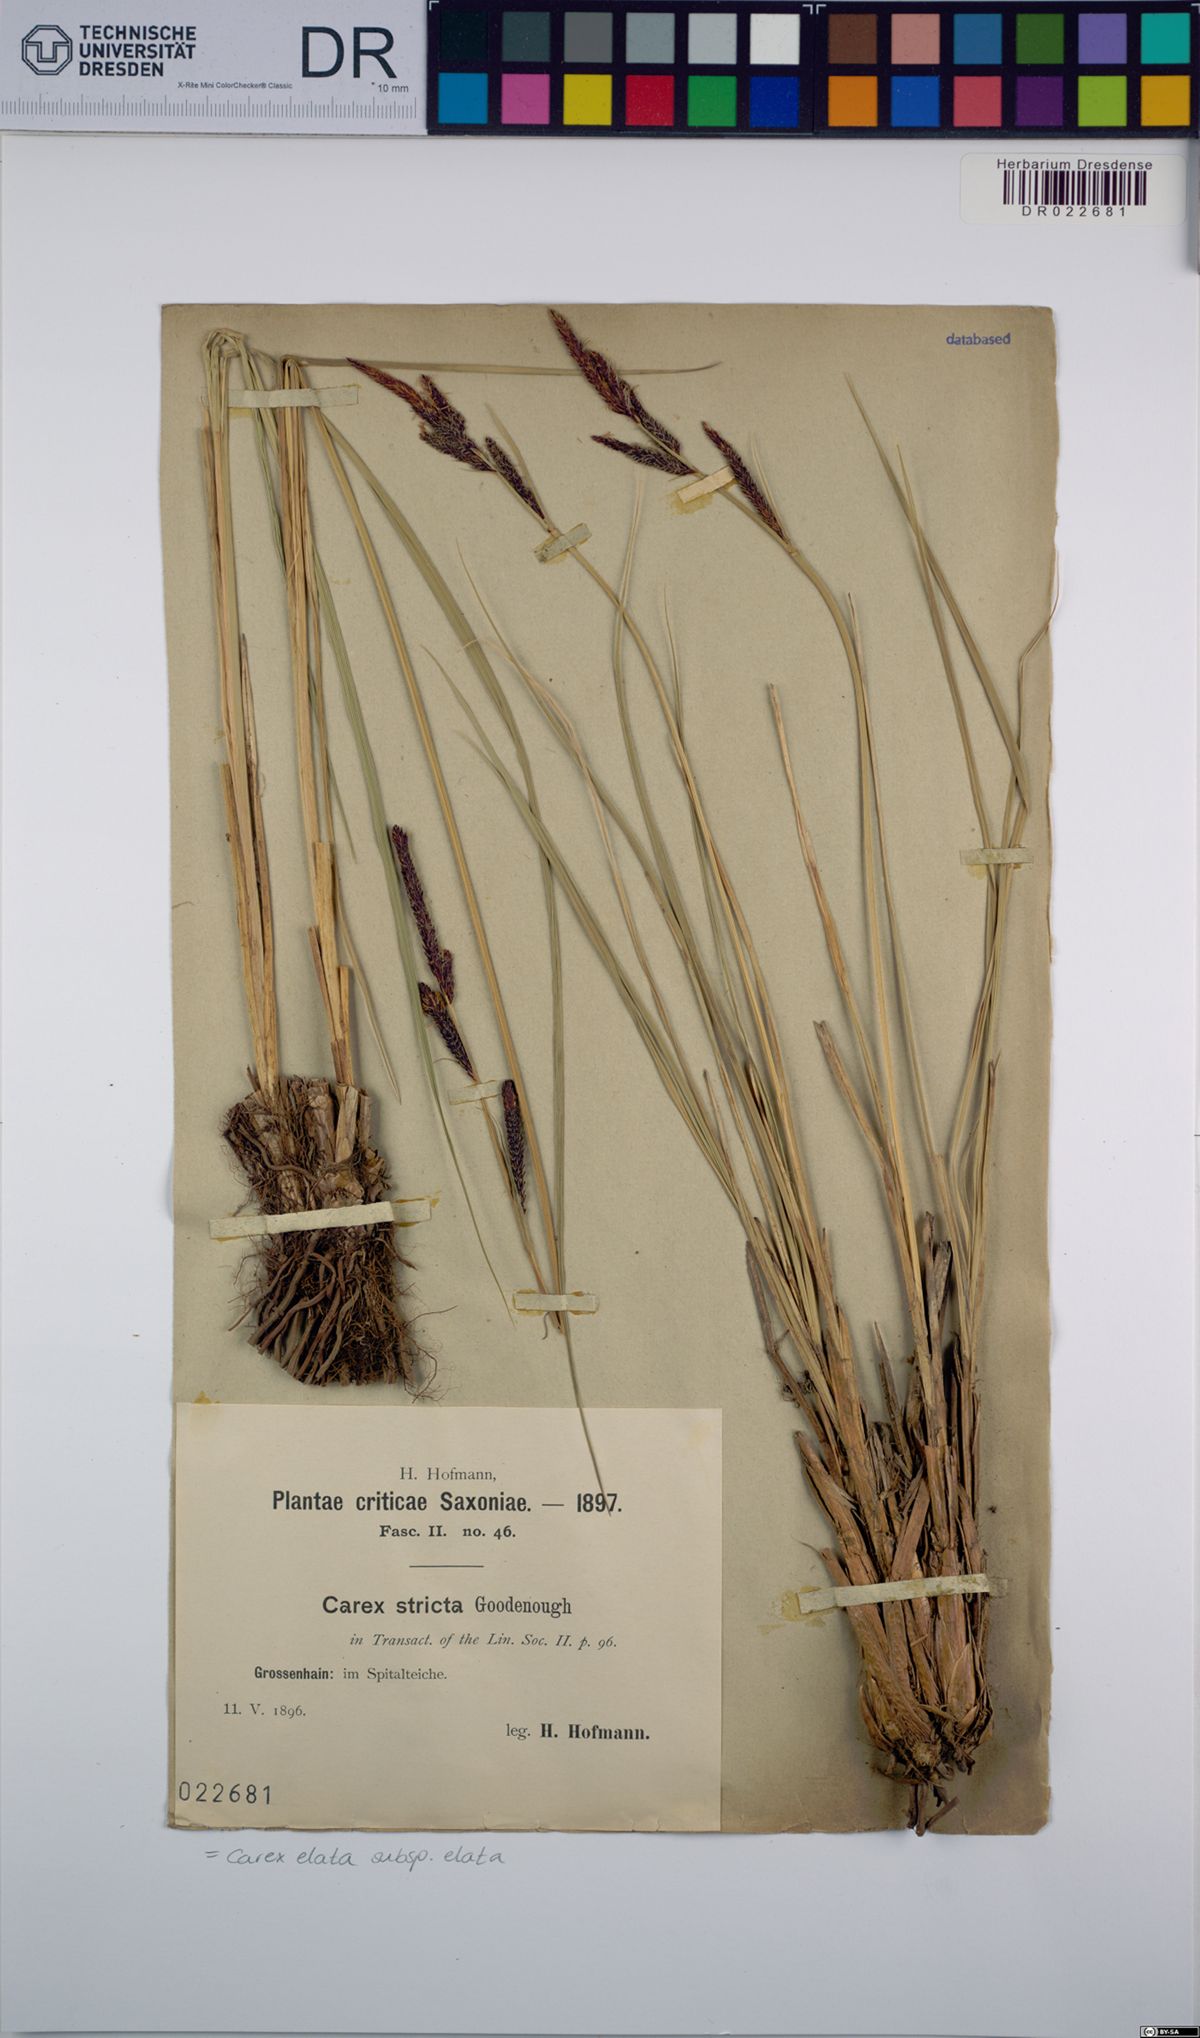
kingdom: Plantae
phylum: Tracheophyta
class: Liliopsida
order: Poales
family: Cyperaceae
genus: Carex
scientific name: Carex elata
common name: Tufted sedge
